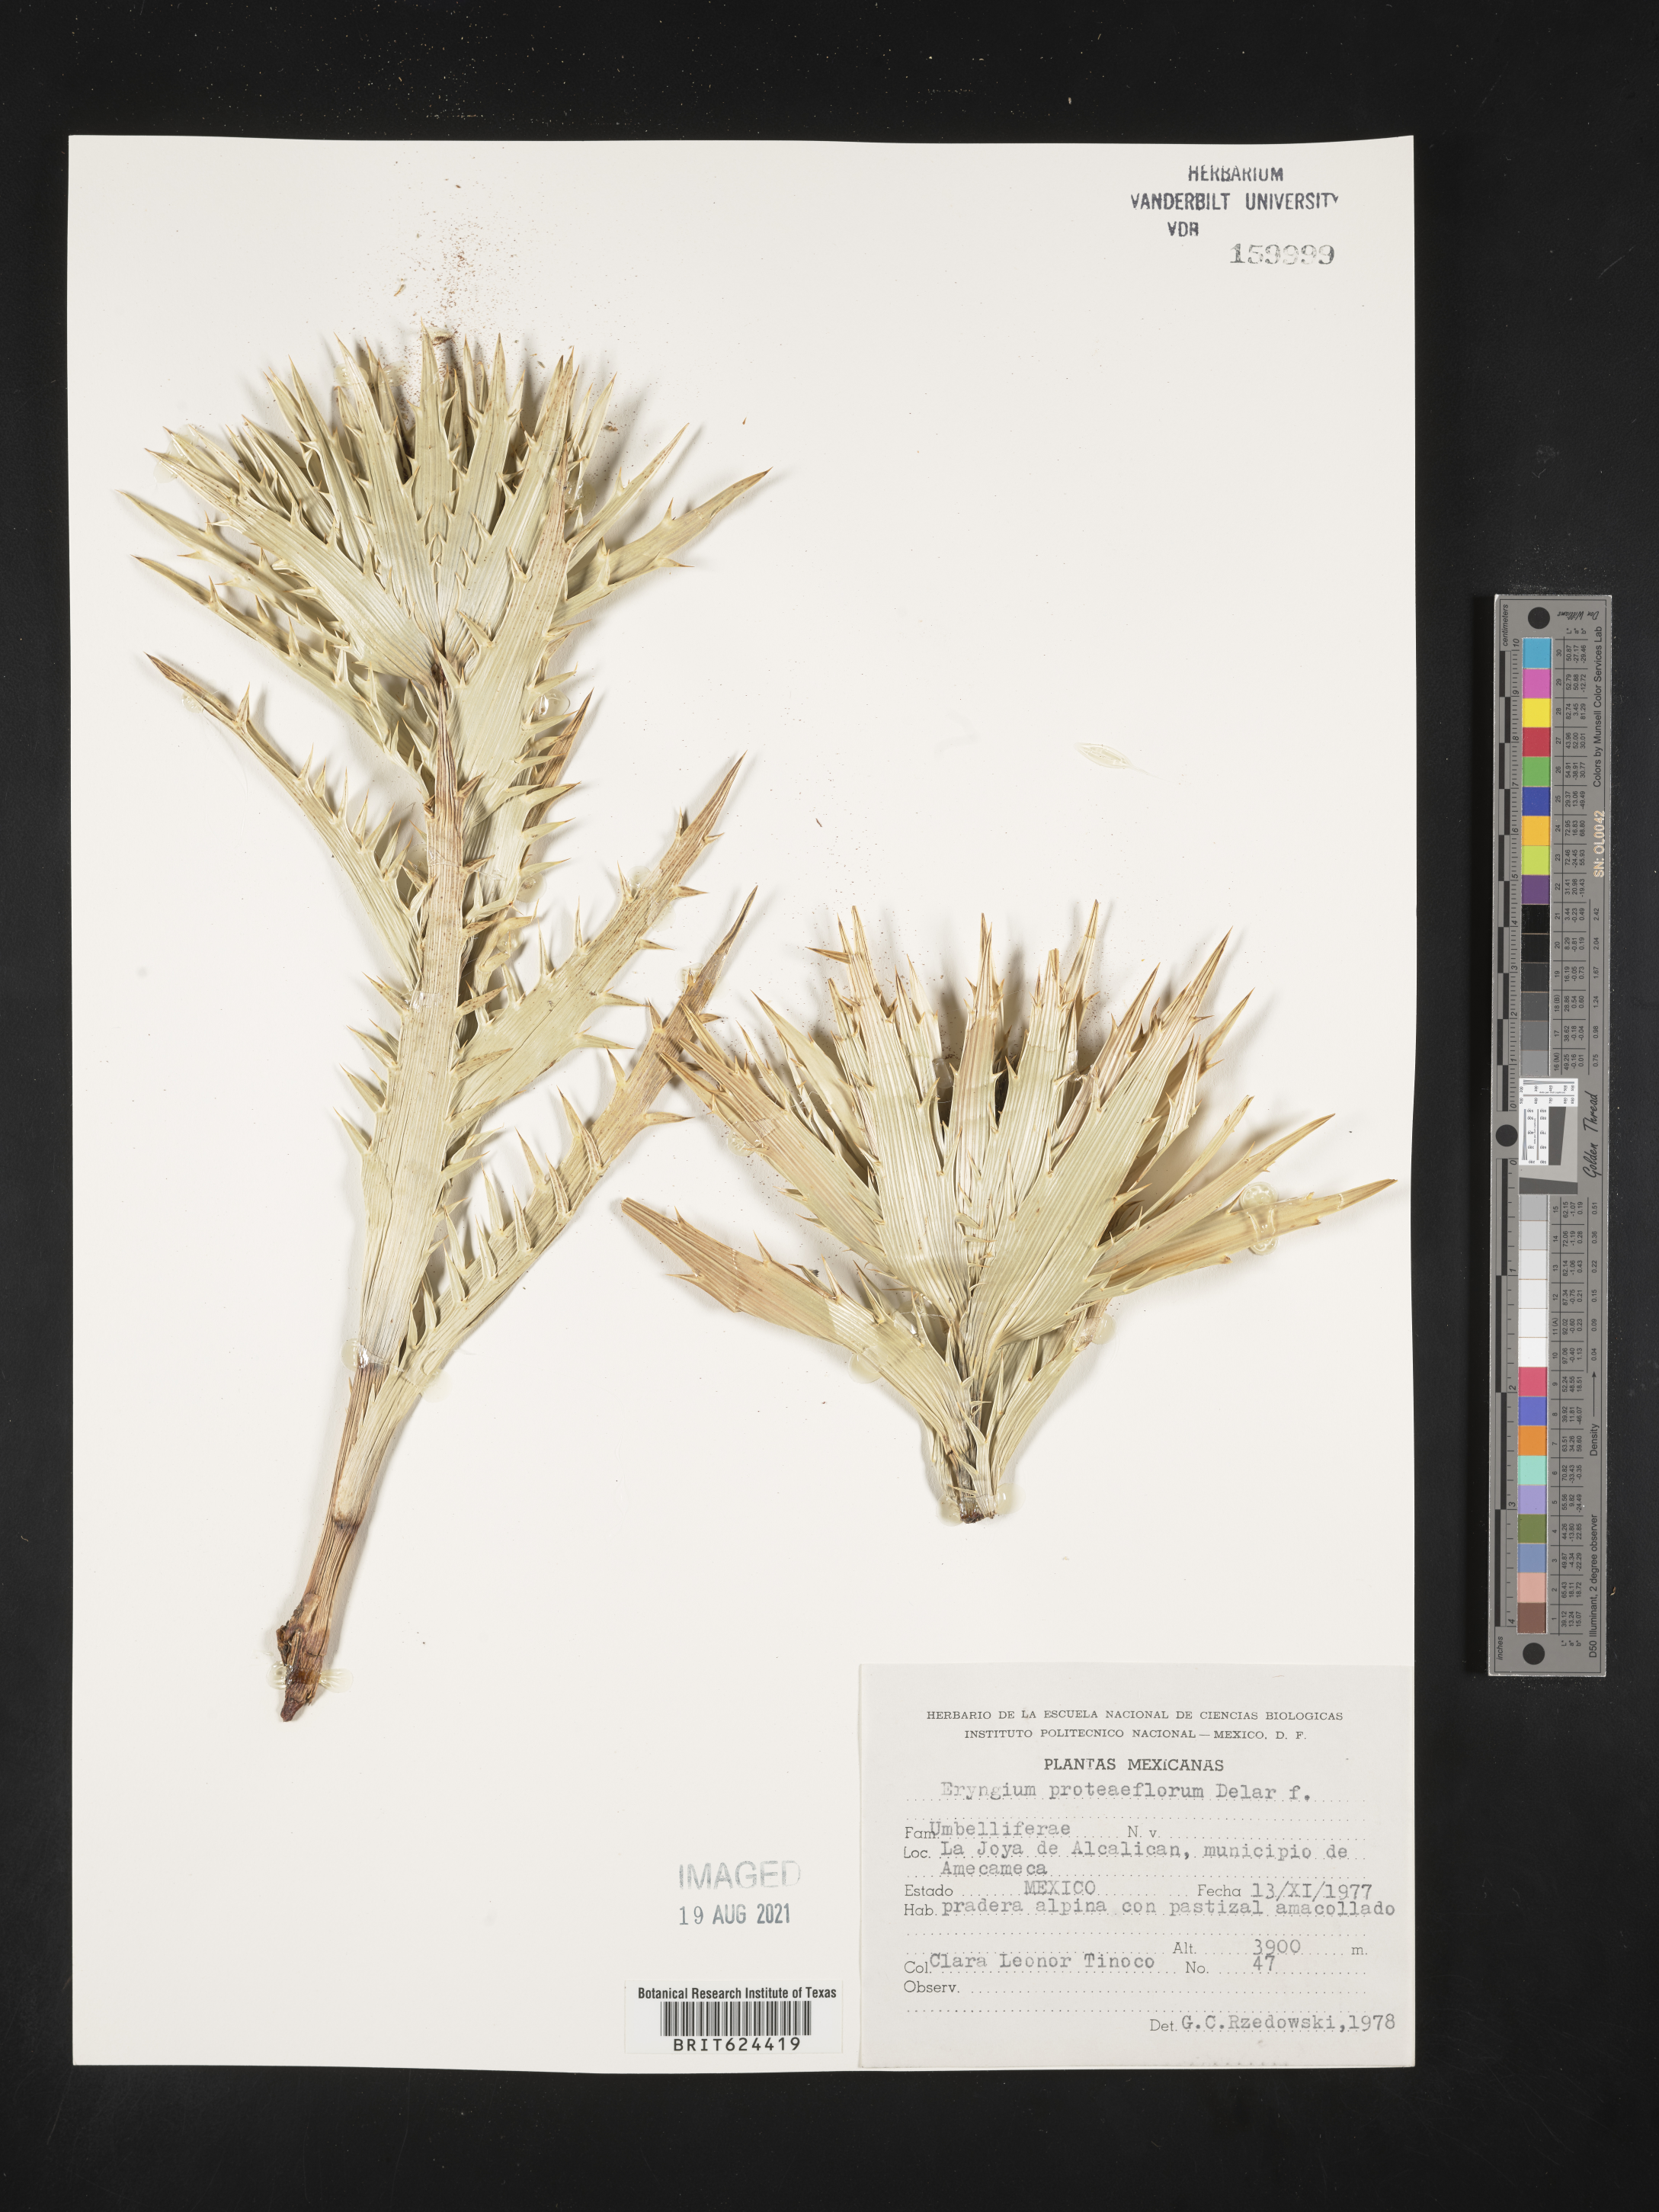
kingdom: Plantae
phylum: Tracheophyta
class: Magnoliopsida
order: Apiales
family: Apiaceae
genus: Eryngium
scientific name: Eryngium
